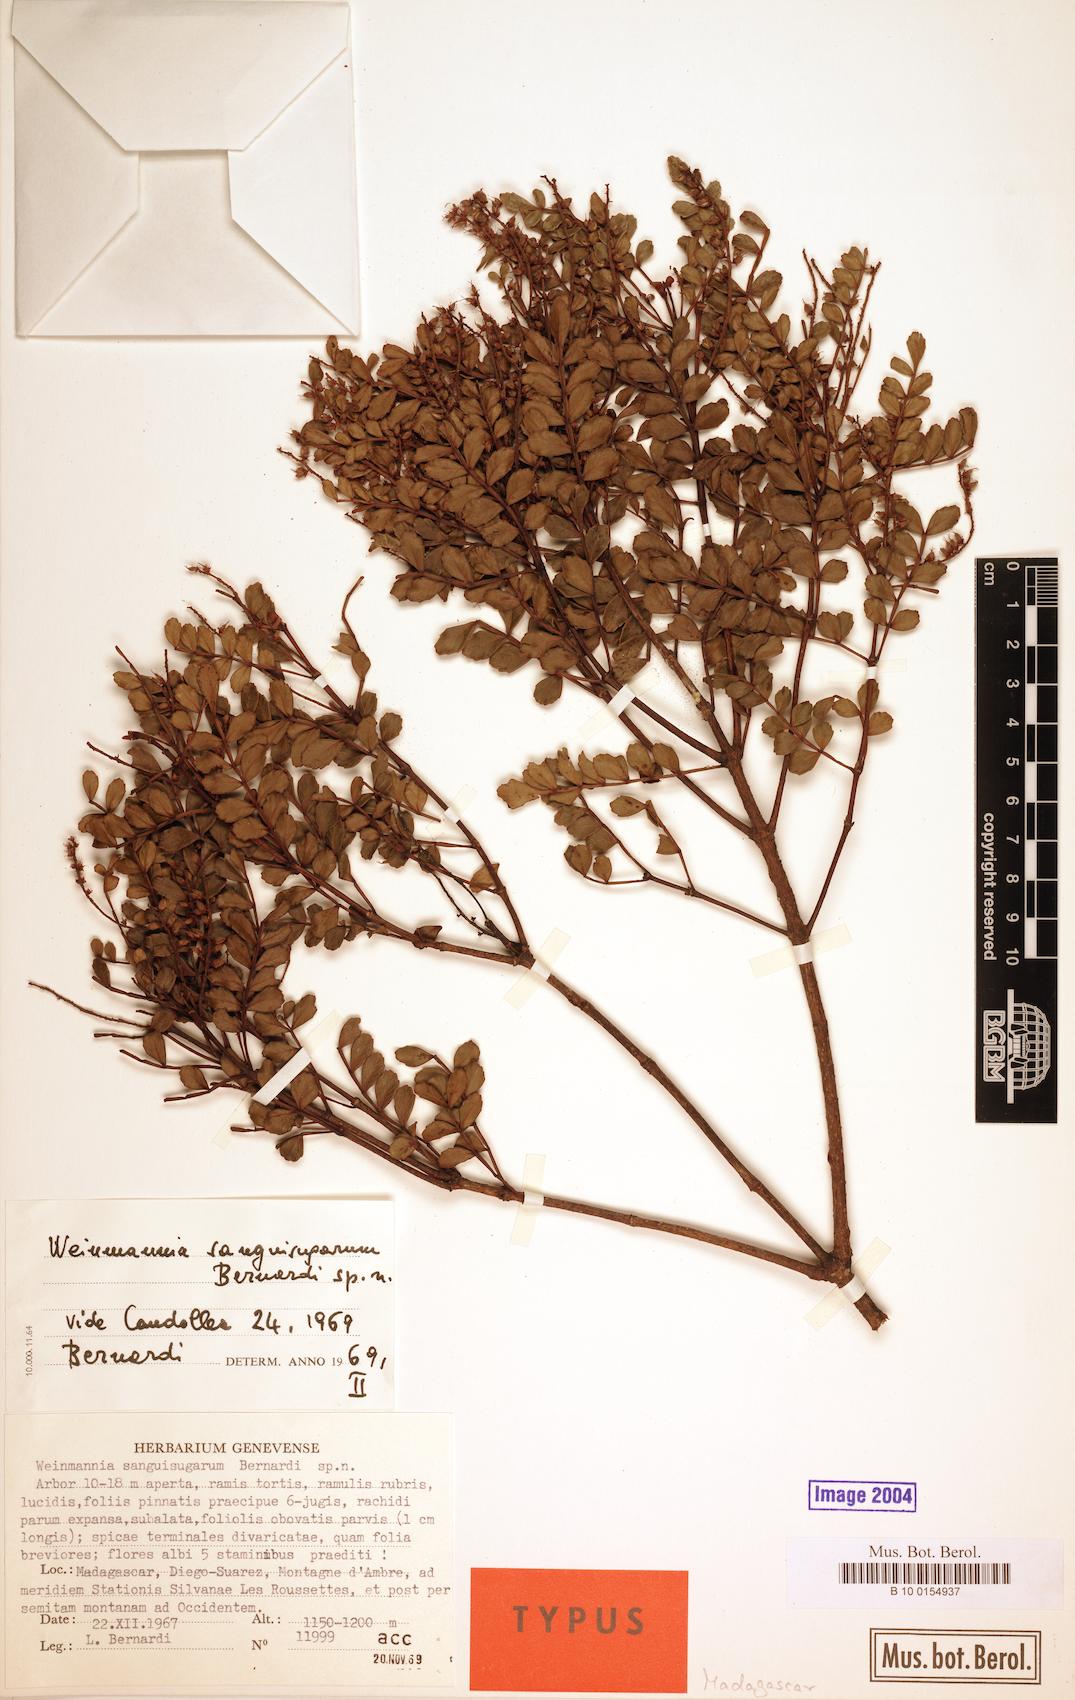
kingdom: Plantae
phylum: Tracheophyta
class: Magnoliopsida
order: Oxalidales
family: Cunoniaceae
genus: Pterophylla
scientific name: Pterophylla sanguisugarum
